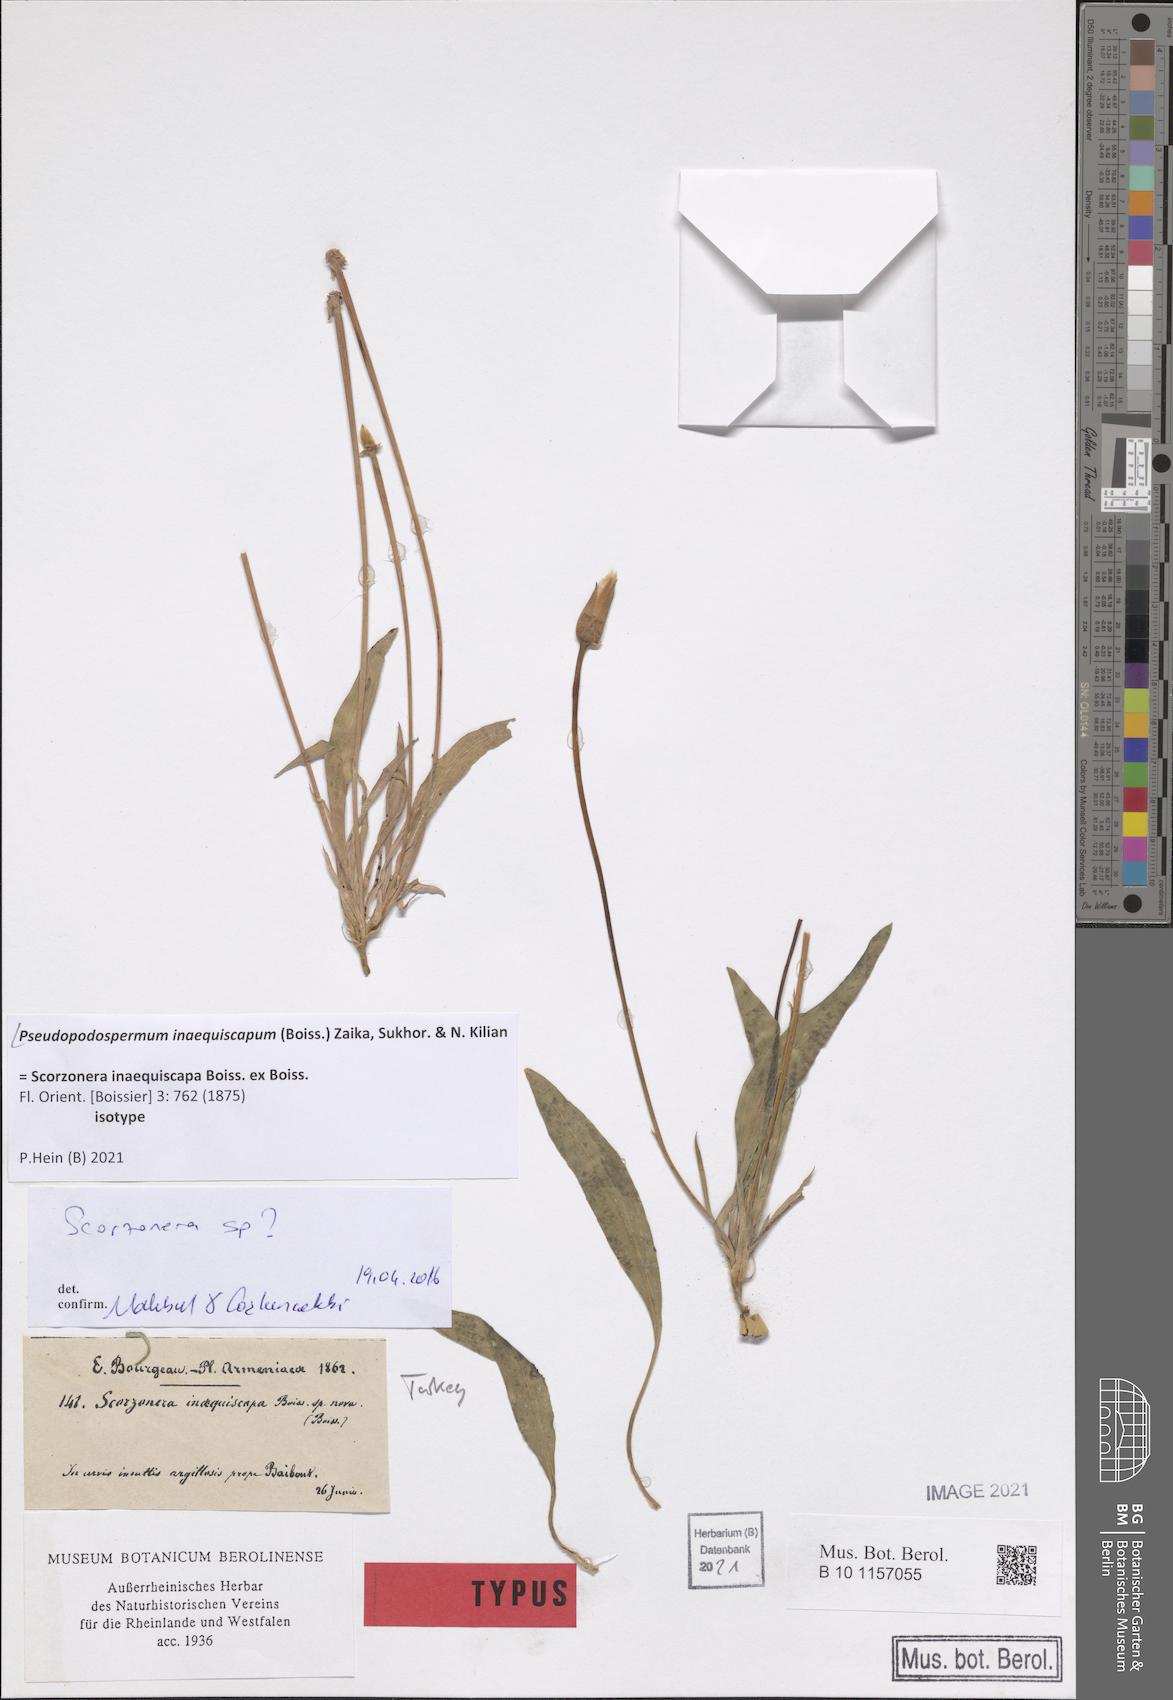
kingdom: Plantae
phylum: Tracheophyta
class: Magnoliopsida
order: Asterales
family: Asteraceae
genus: Pseudopodospermum
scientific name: Pseudopodospermum inaequiscapum
